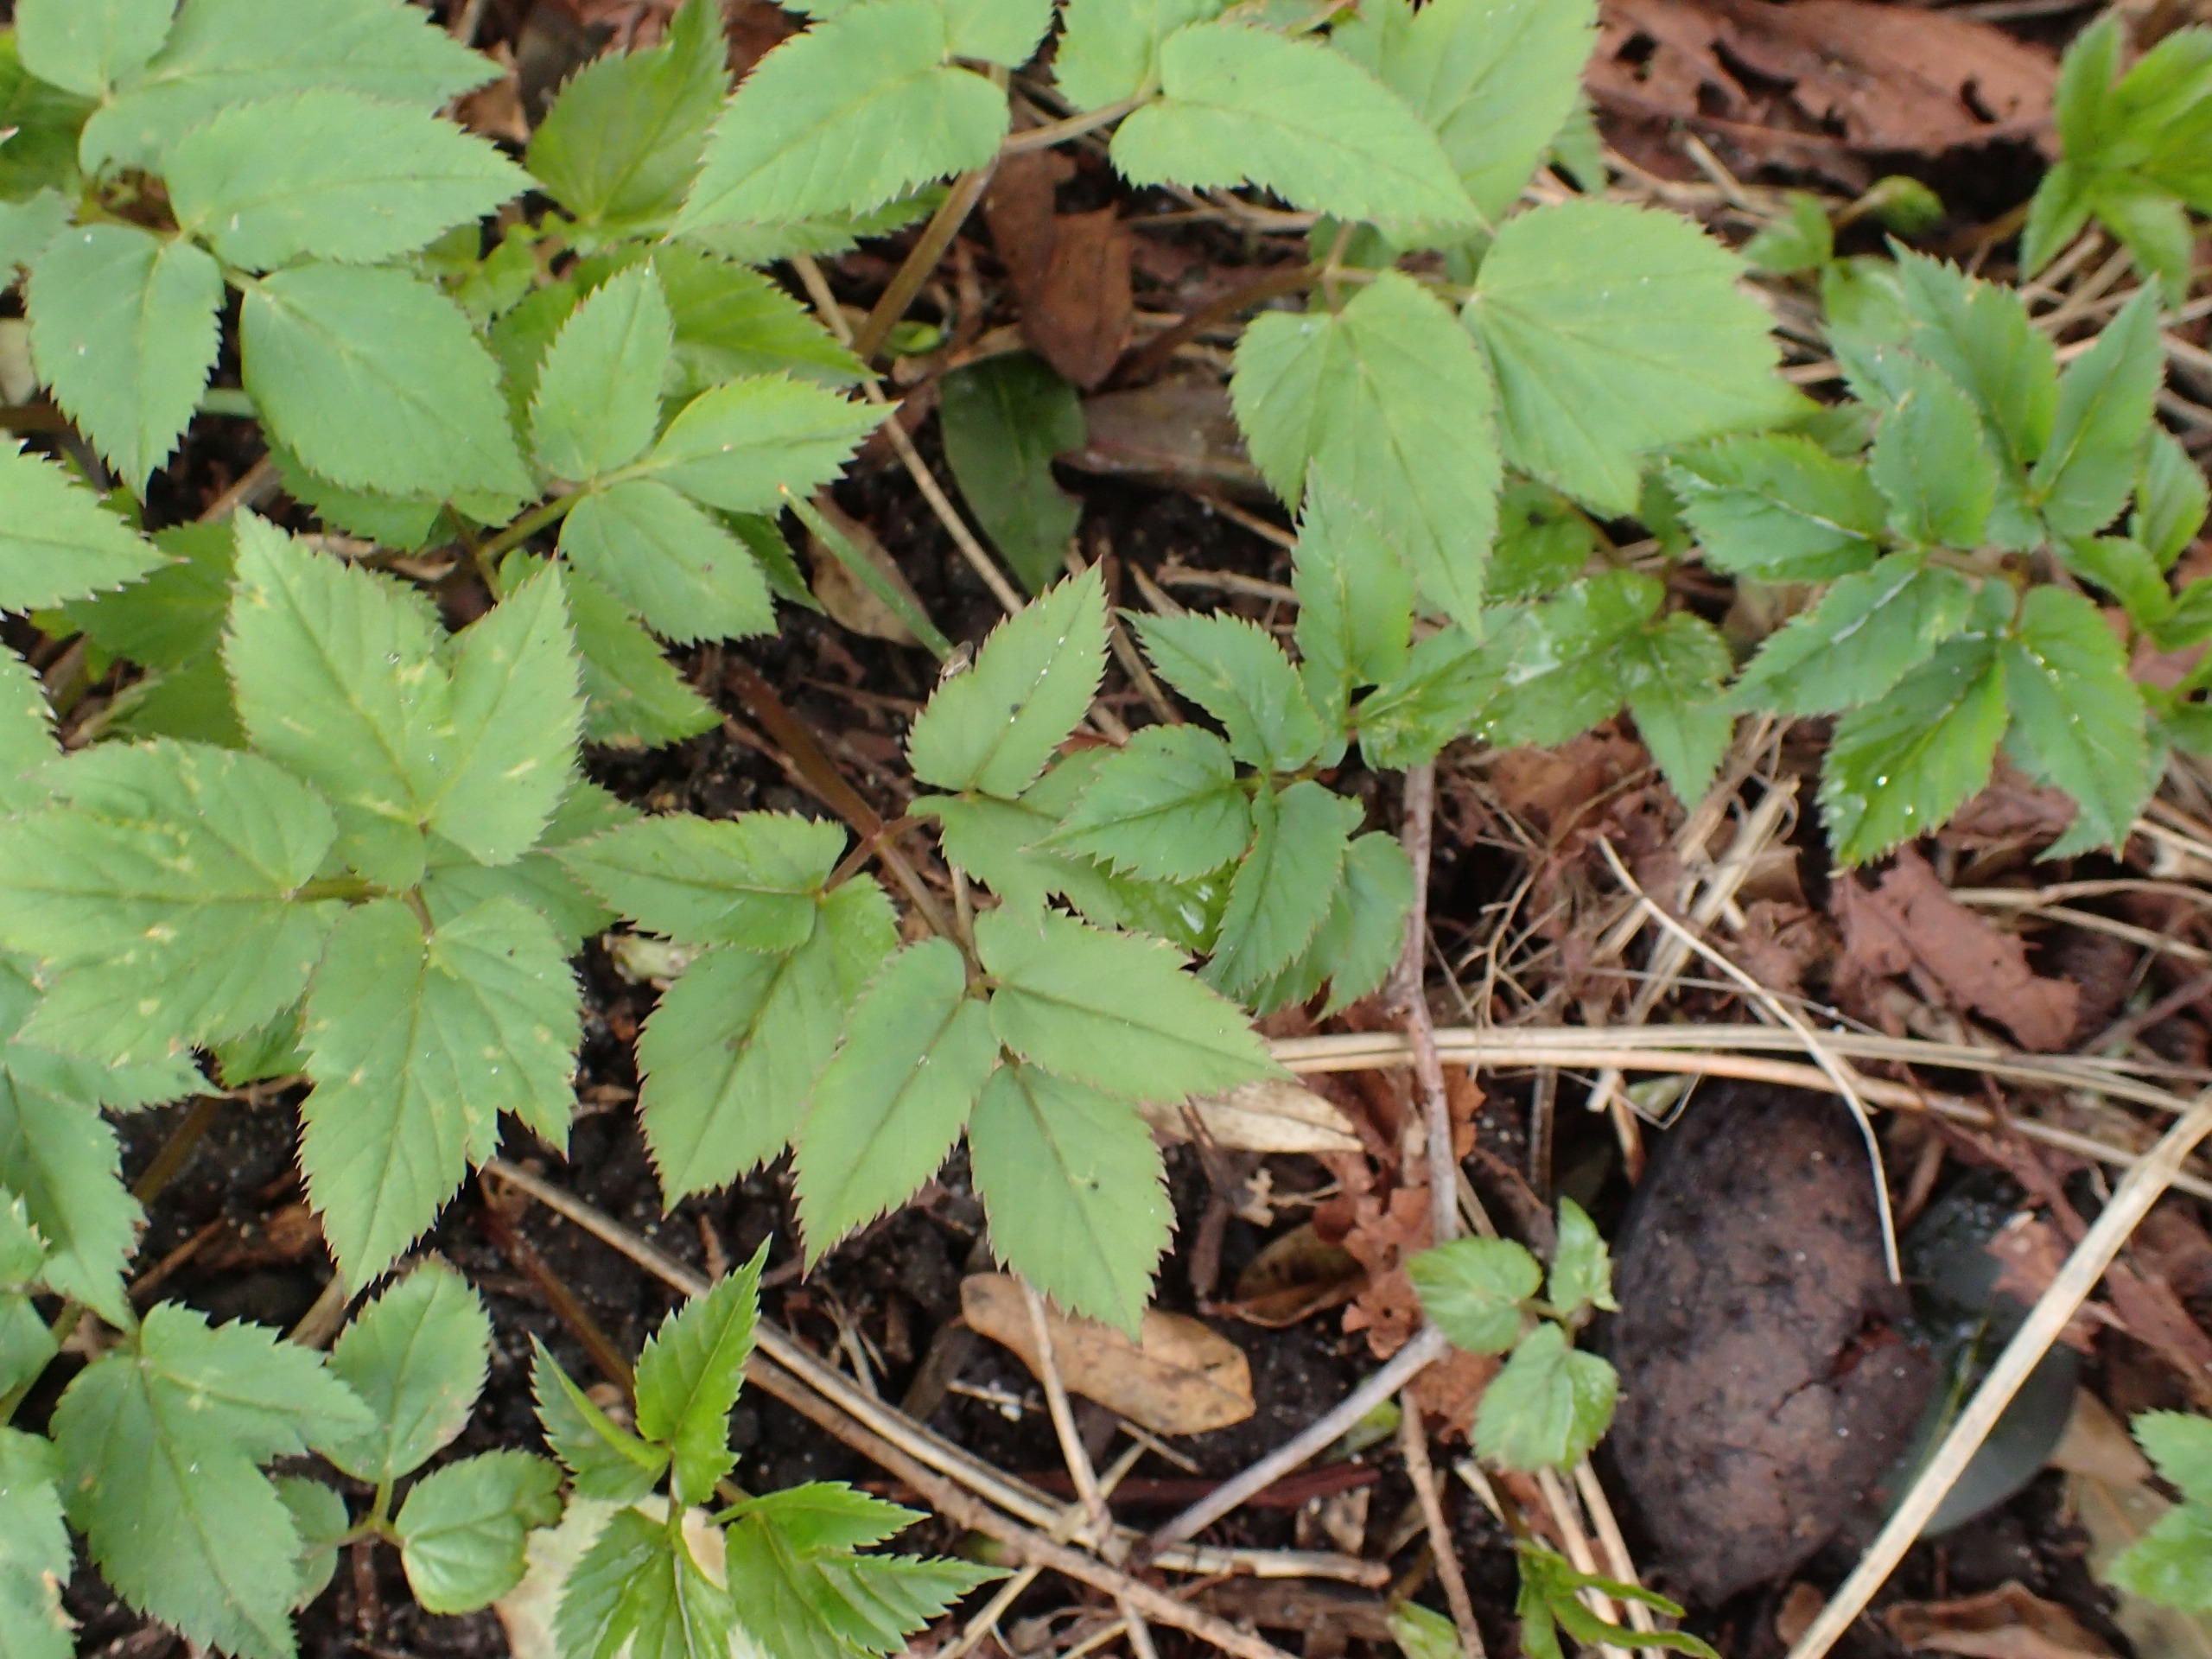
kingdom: Plantae
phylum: Tracheophyta
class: Magnoliopsida
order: Apiales
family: Apiaceae
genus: Aegopodium
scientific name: Aegopodium podagraria
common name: Skvalderkål
